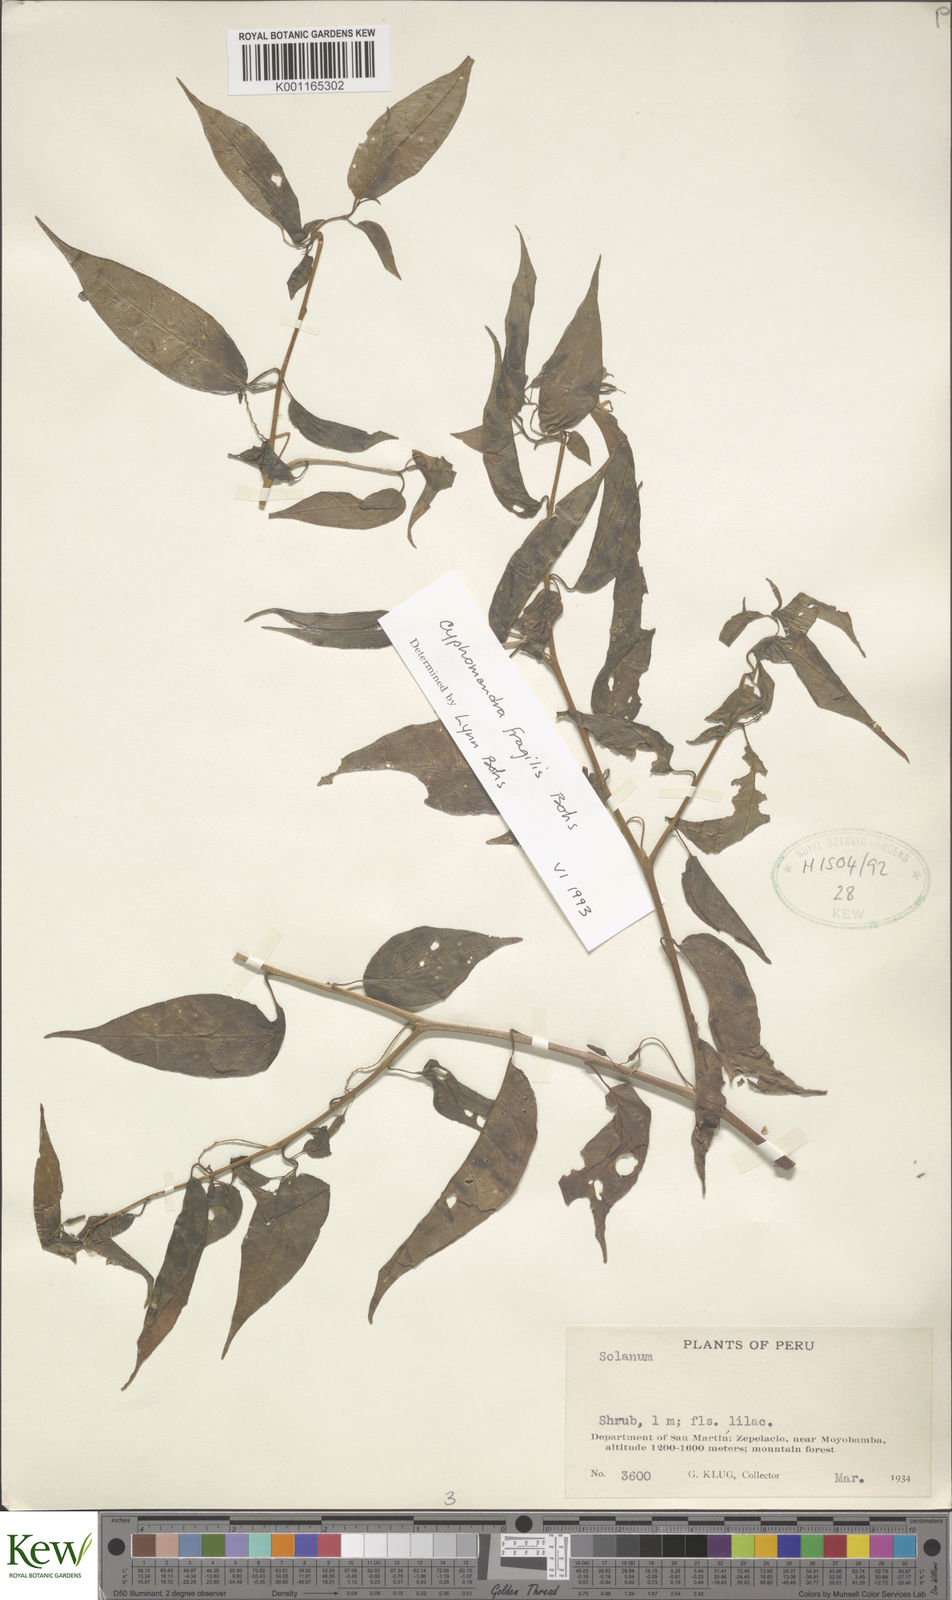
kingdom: Plantae
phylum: Tracheophyta
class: Magnoliopsida
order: Solanales
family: Solanaceae
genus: Solanum
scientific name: Solanum oxyphyllum
